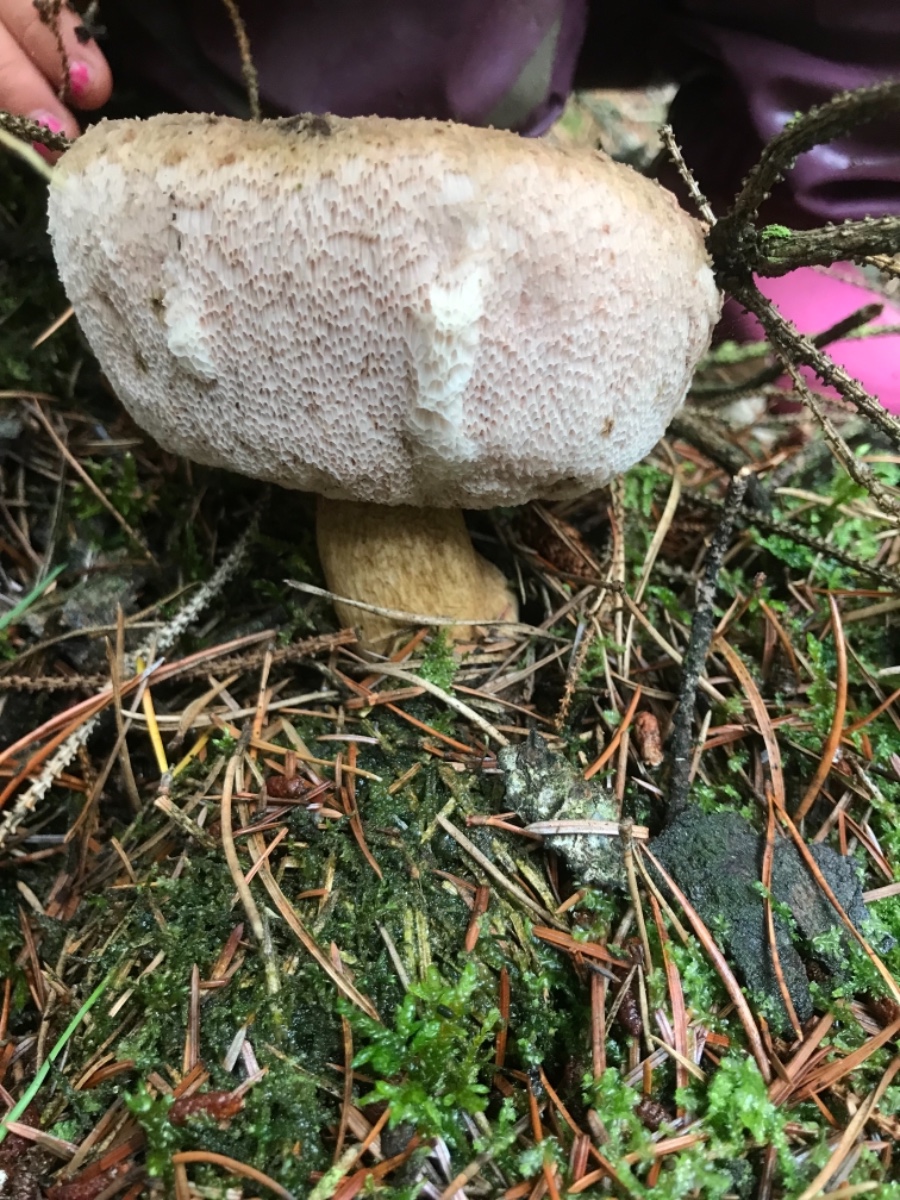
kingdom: Fungi
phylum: Basidiomycota
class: Agaricomycetes
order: Boletales
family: Boletaceae
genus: Tylopilus
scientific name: Tylopilus felleus
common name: galderørhat
